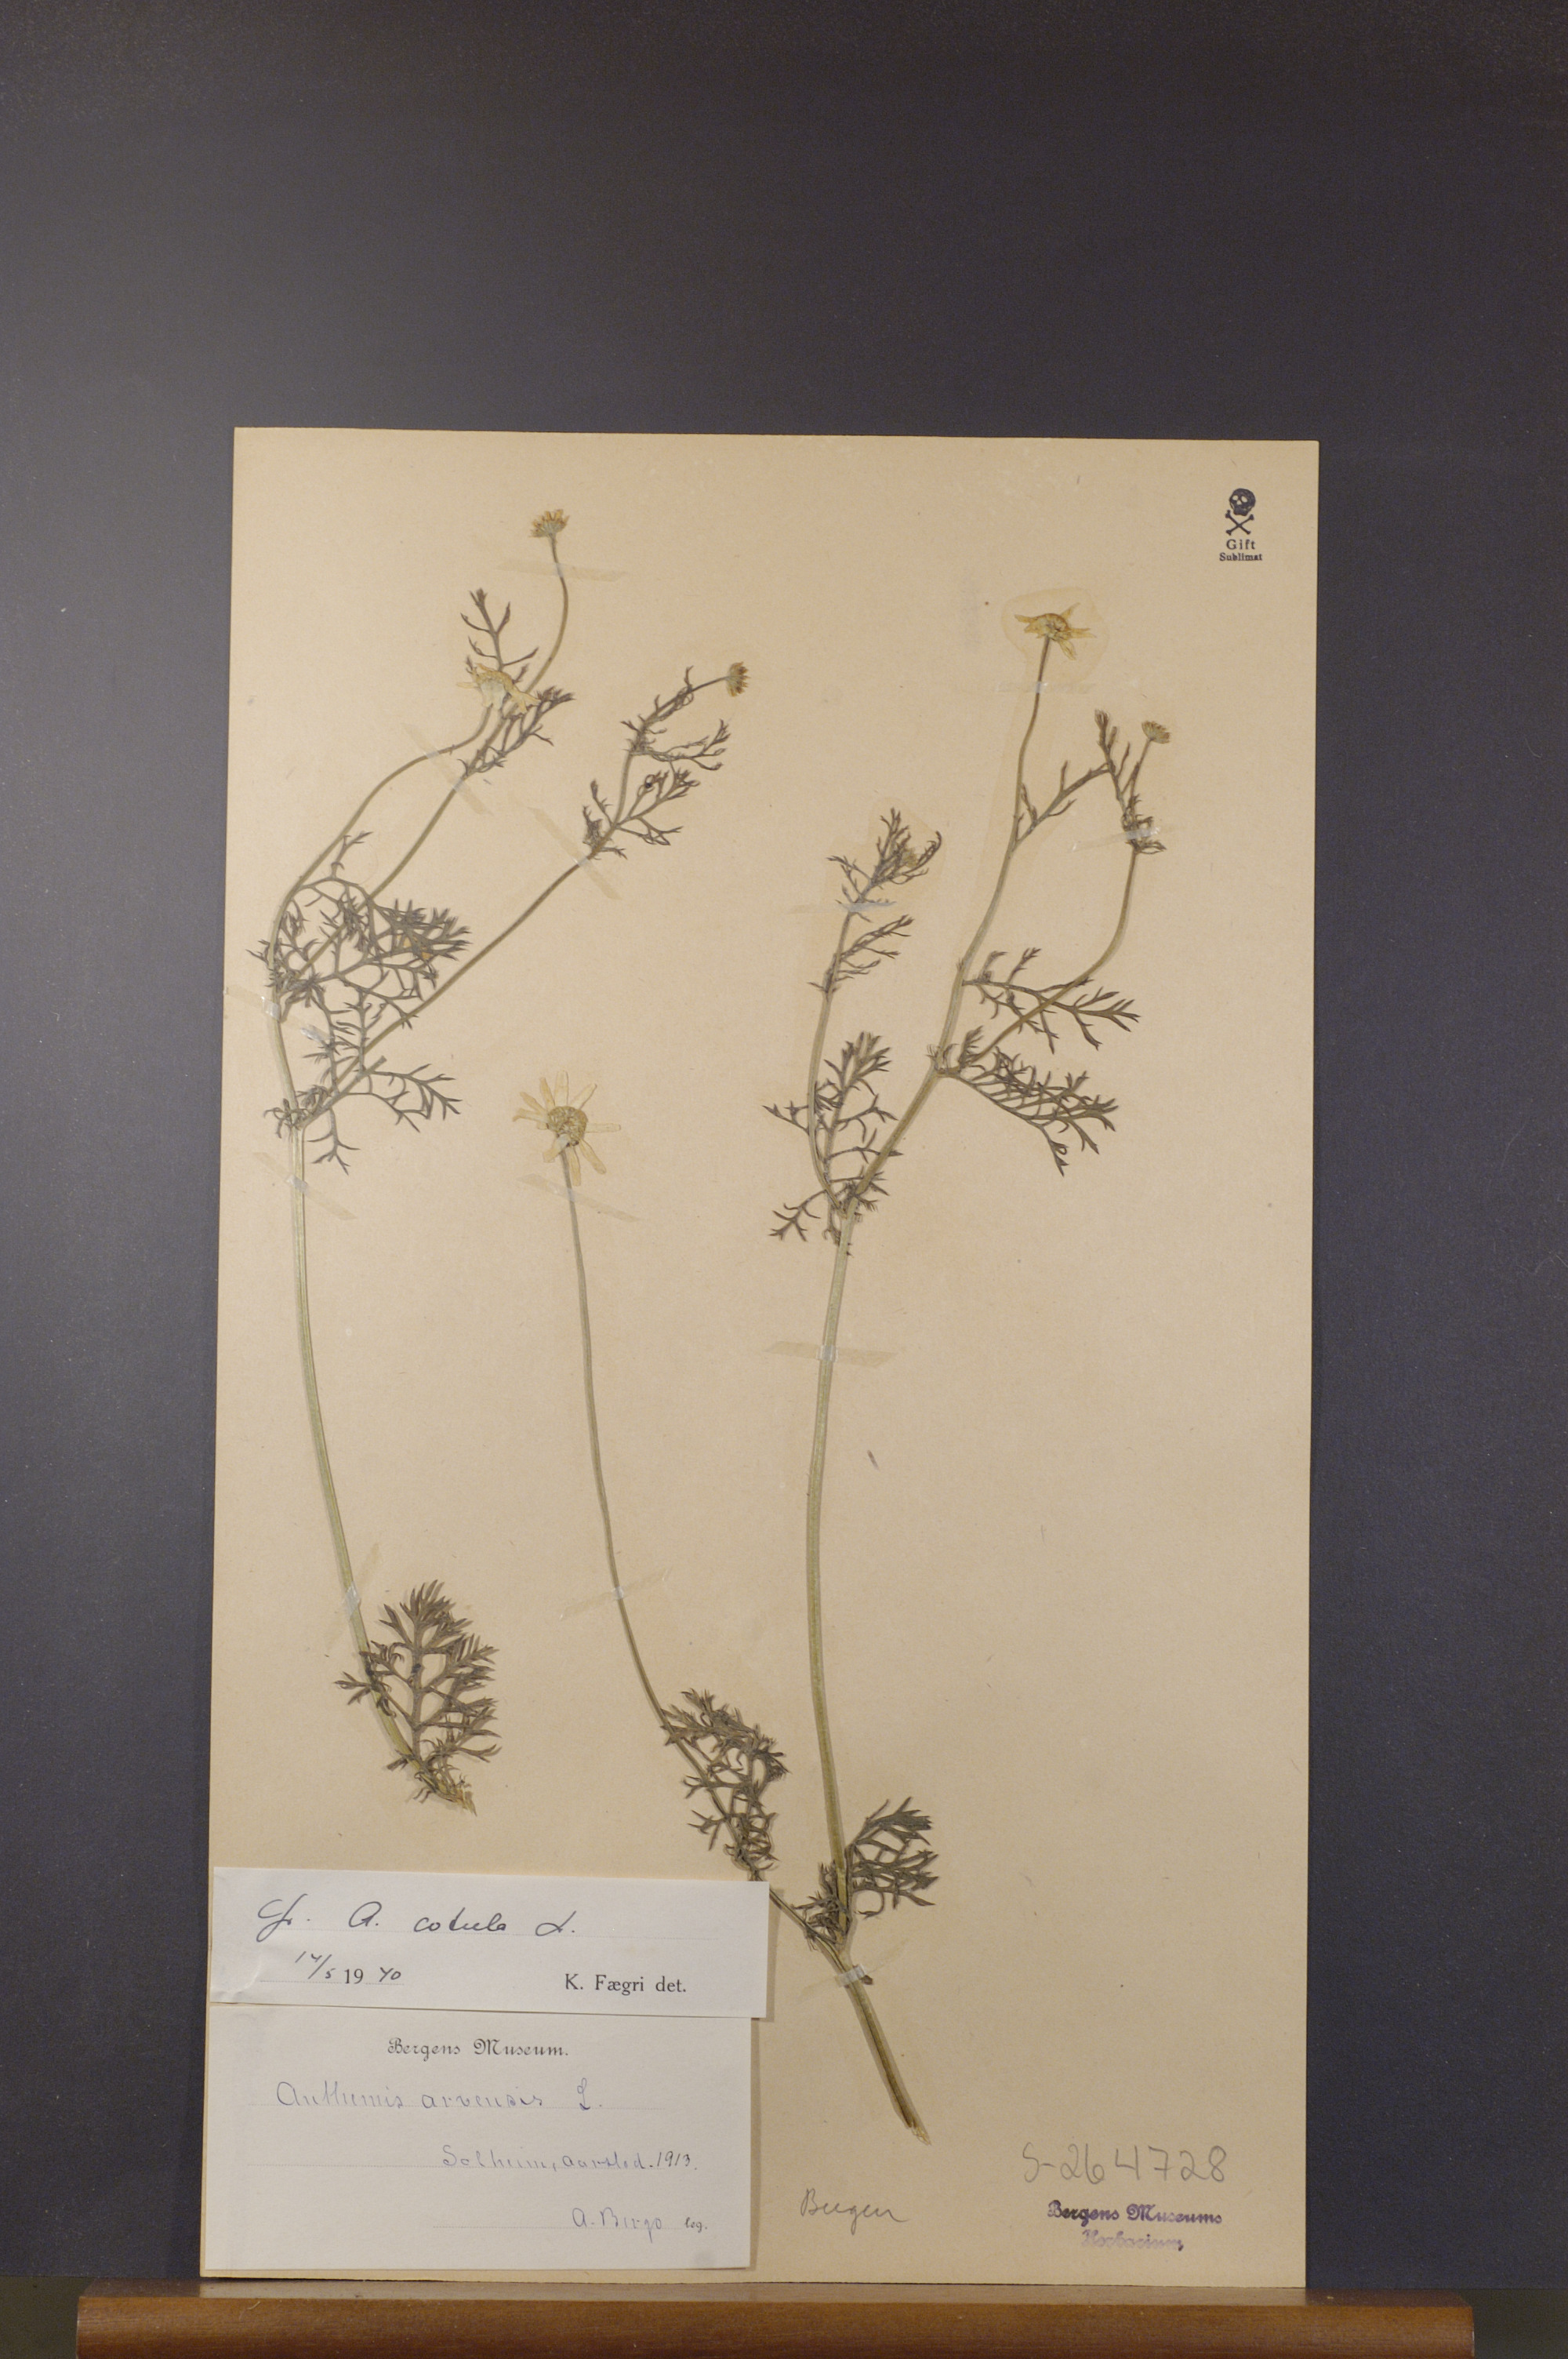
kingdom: Plantae
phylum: Tracheophyta
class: Magnoliopsida
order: Asterales
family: Asteraceae
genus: Anthemis
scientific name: Anthemis cotula
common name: Stinking chamomile
